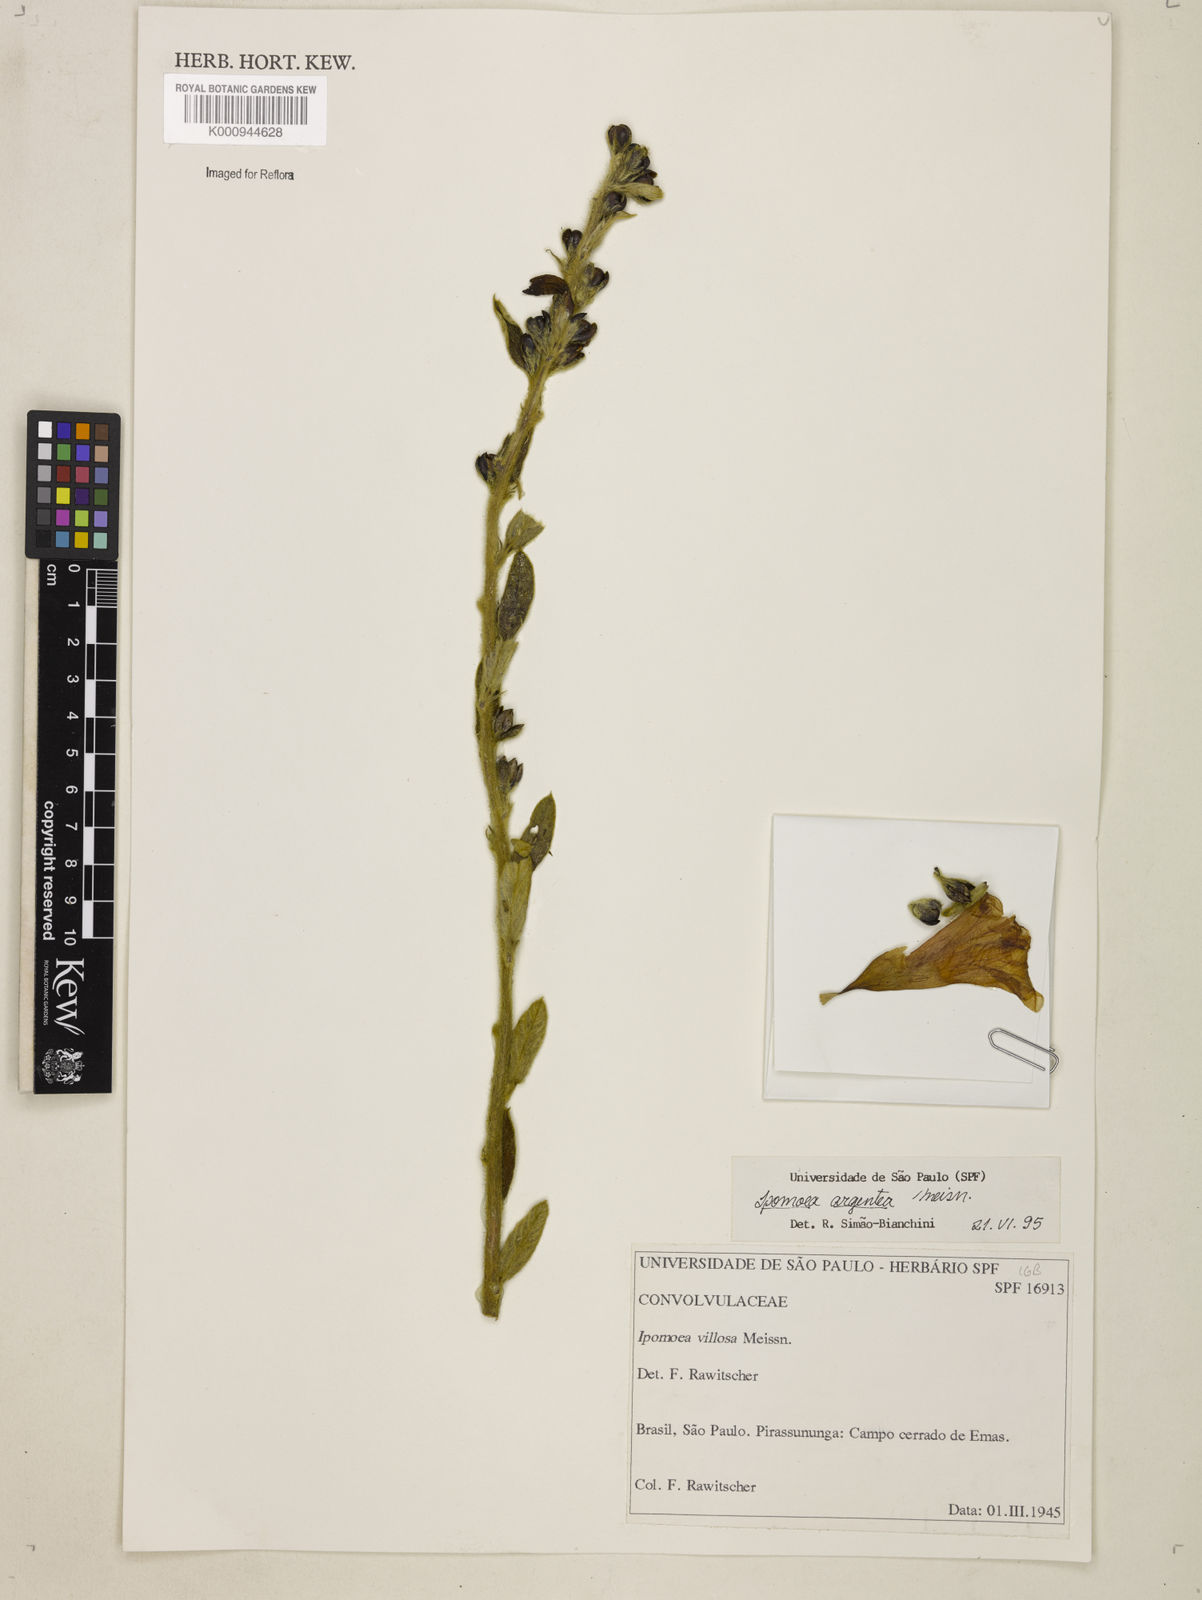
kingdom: Plantae
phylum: Tracheophyta
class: Magnoliopsida
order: Solanales
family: Convolvulaceae
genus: Ipomoea
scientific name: Ipomoea argentea
